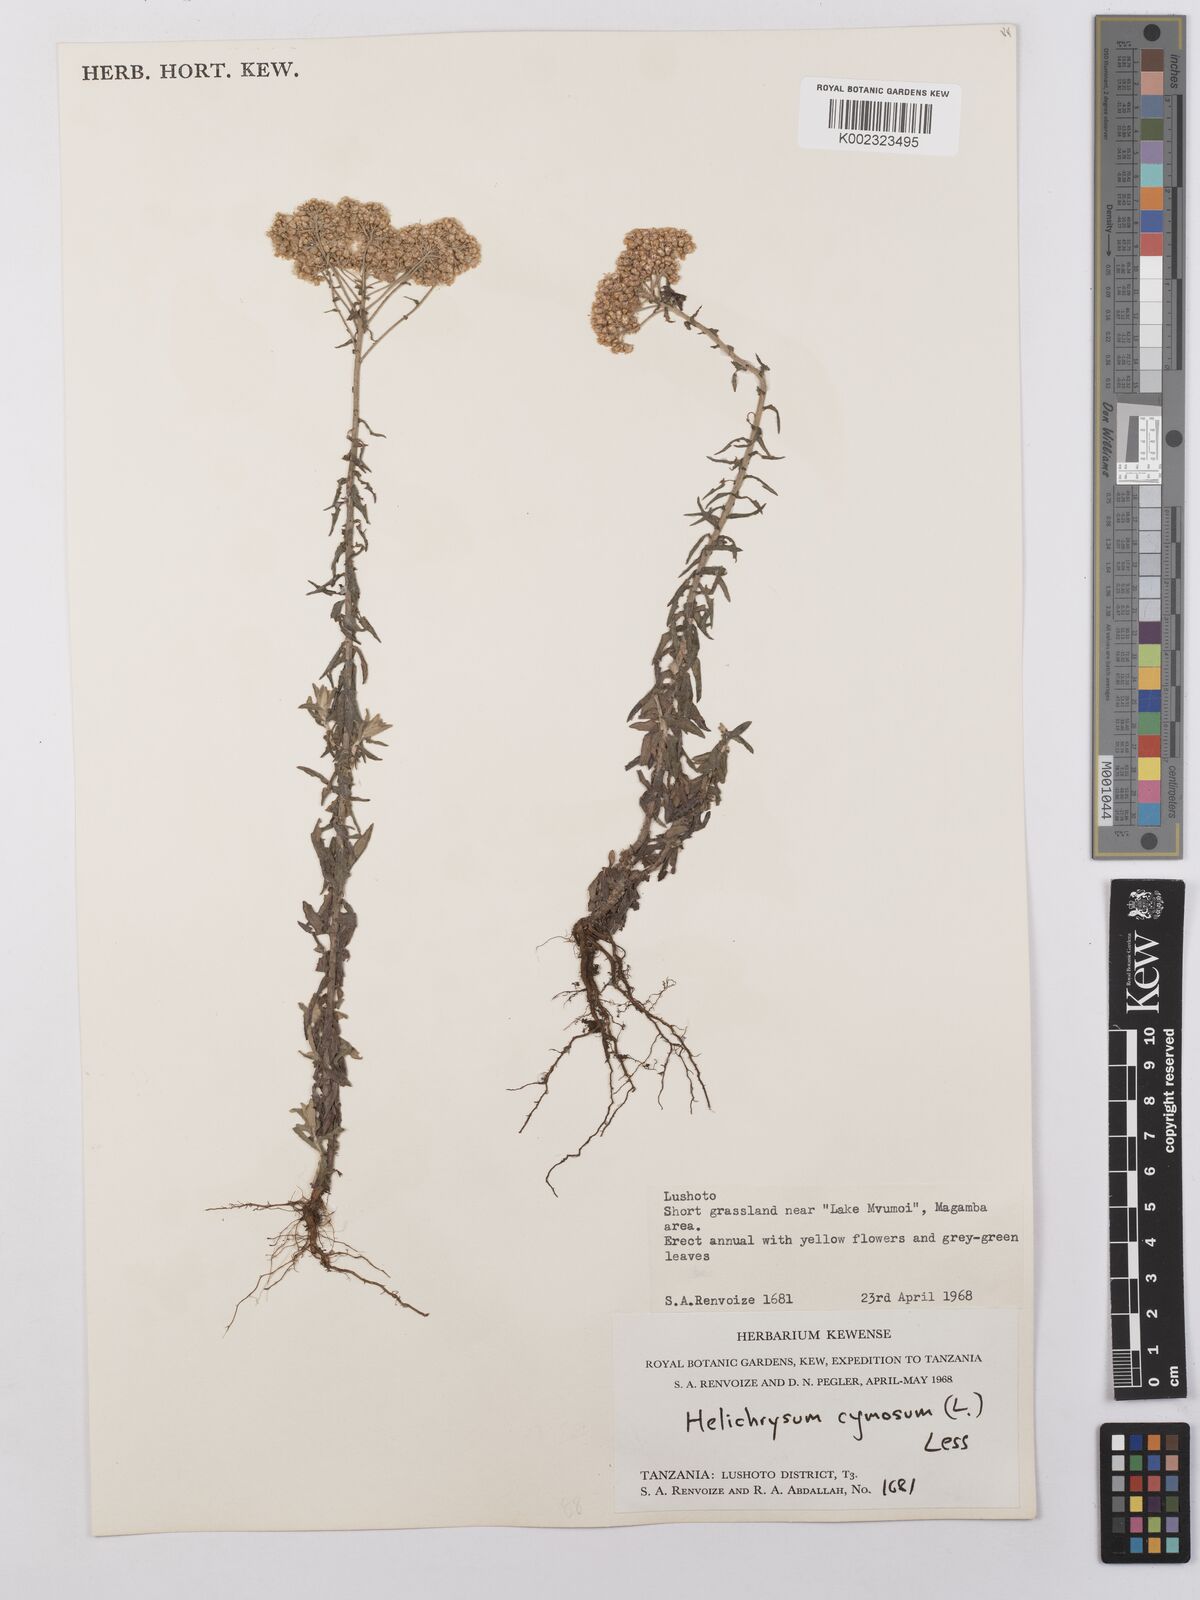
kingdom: Plantae
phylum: Tracheophyta
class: Magnoliopsida
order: Asterales
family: Asteraceae
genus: Helichrysum
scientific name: Helichrysum forskahlii
